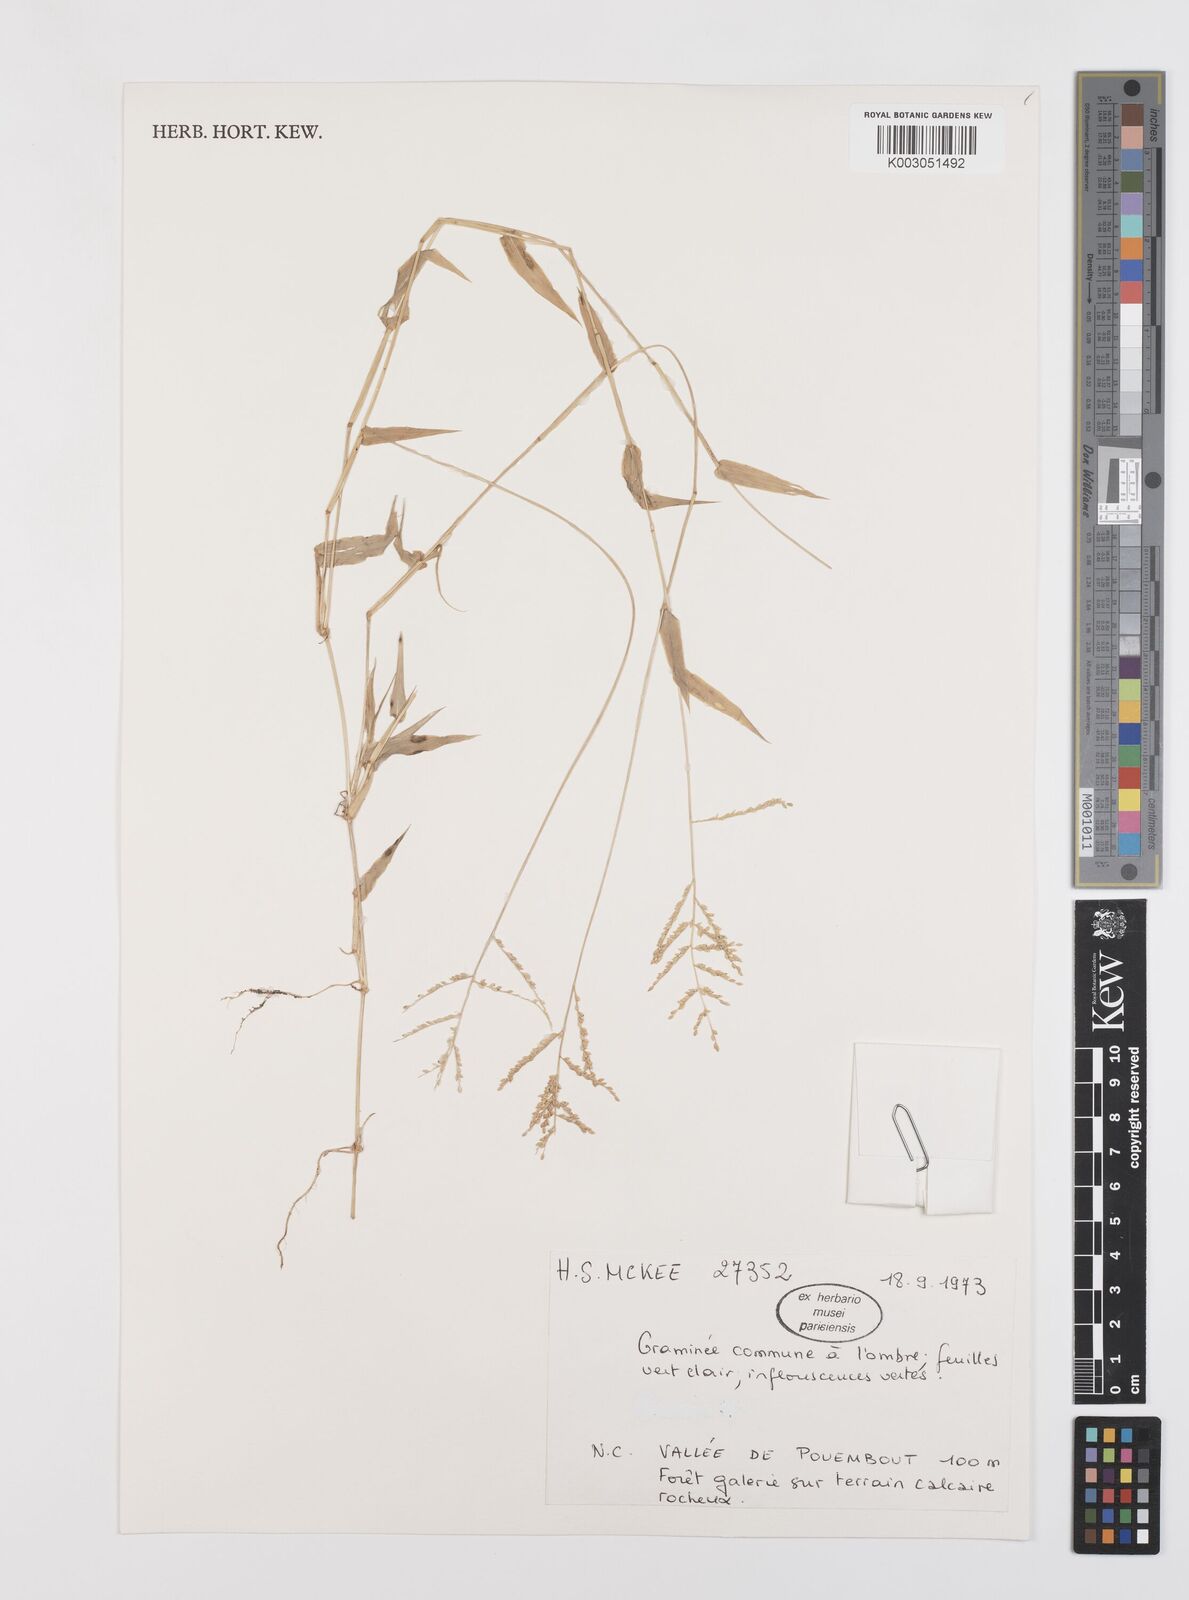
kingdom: Plantae
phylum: Tracheophyta
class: Liliopsida
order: Poales
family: Poaceae
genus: Urochloa
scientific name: Urochloa reptans
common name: Sprawling signalgrass
